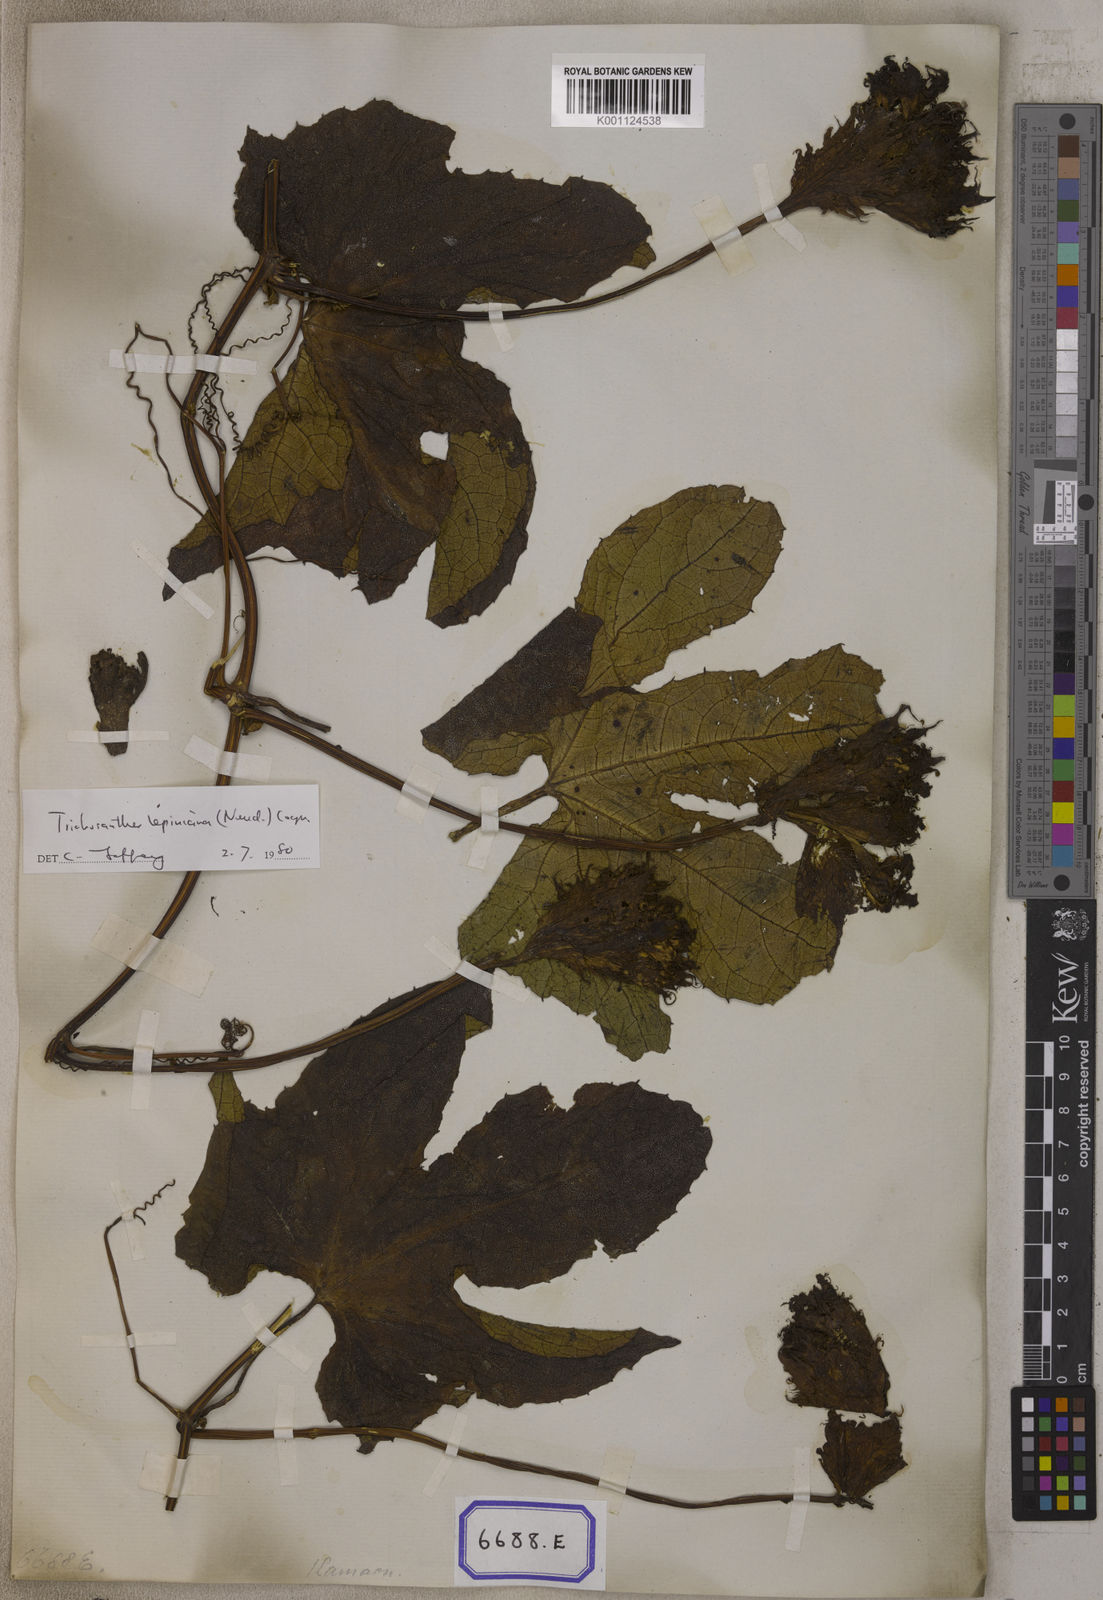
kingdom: Plantae
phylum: Tracheophyta
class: Magnoliopsida
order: Cucurbitales
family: Cucurbitaceae
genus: Trichosanthes
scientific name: Trichosanthes
